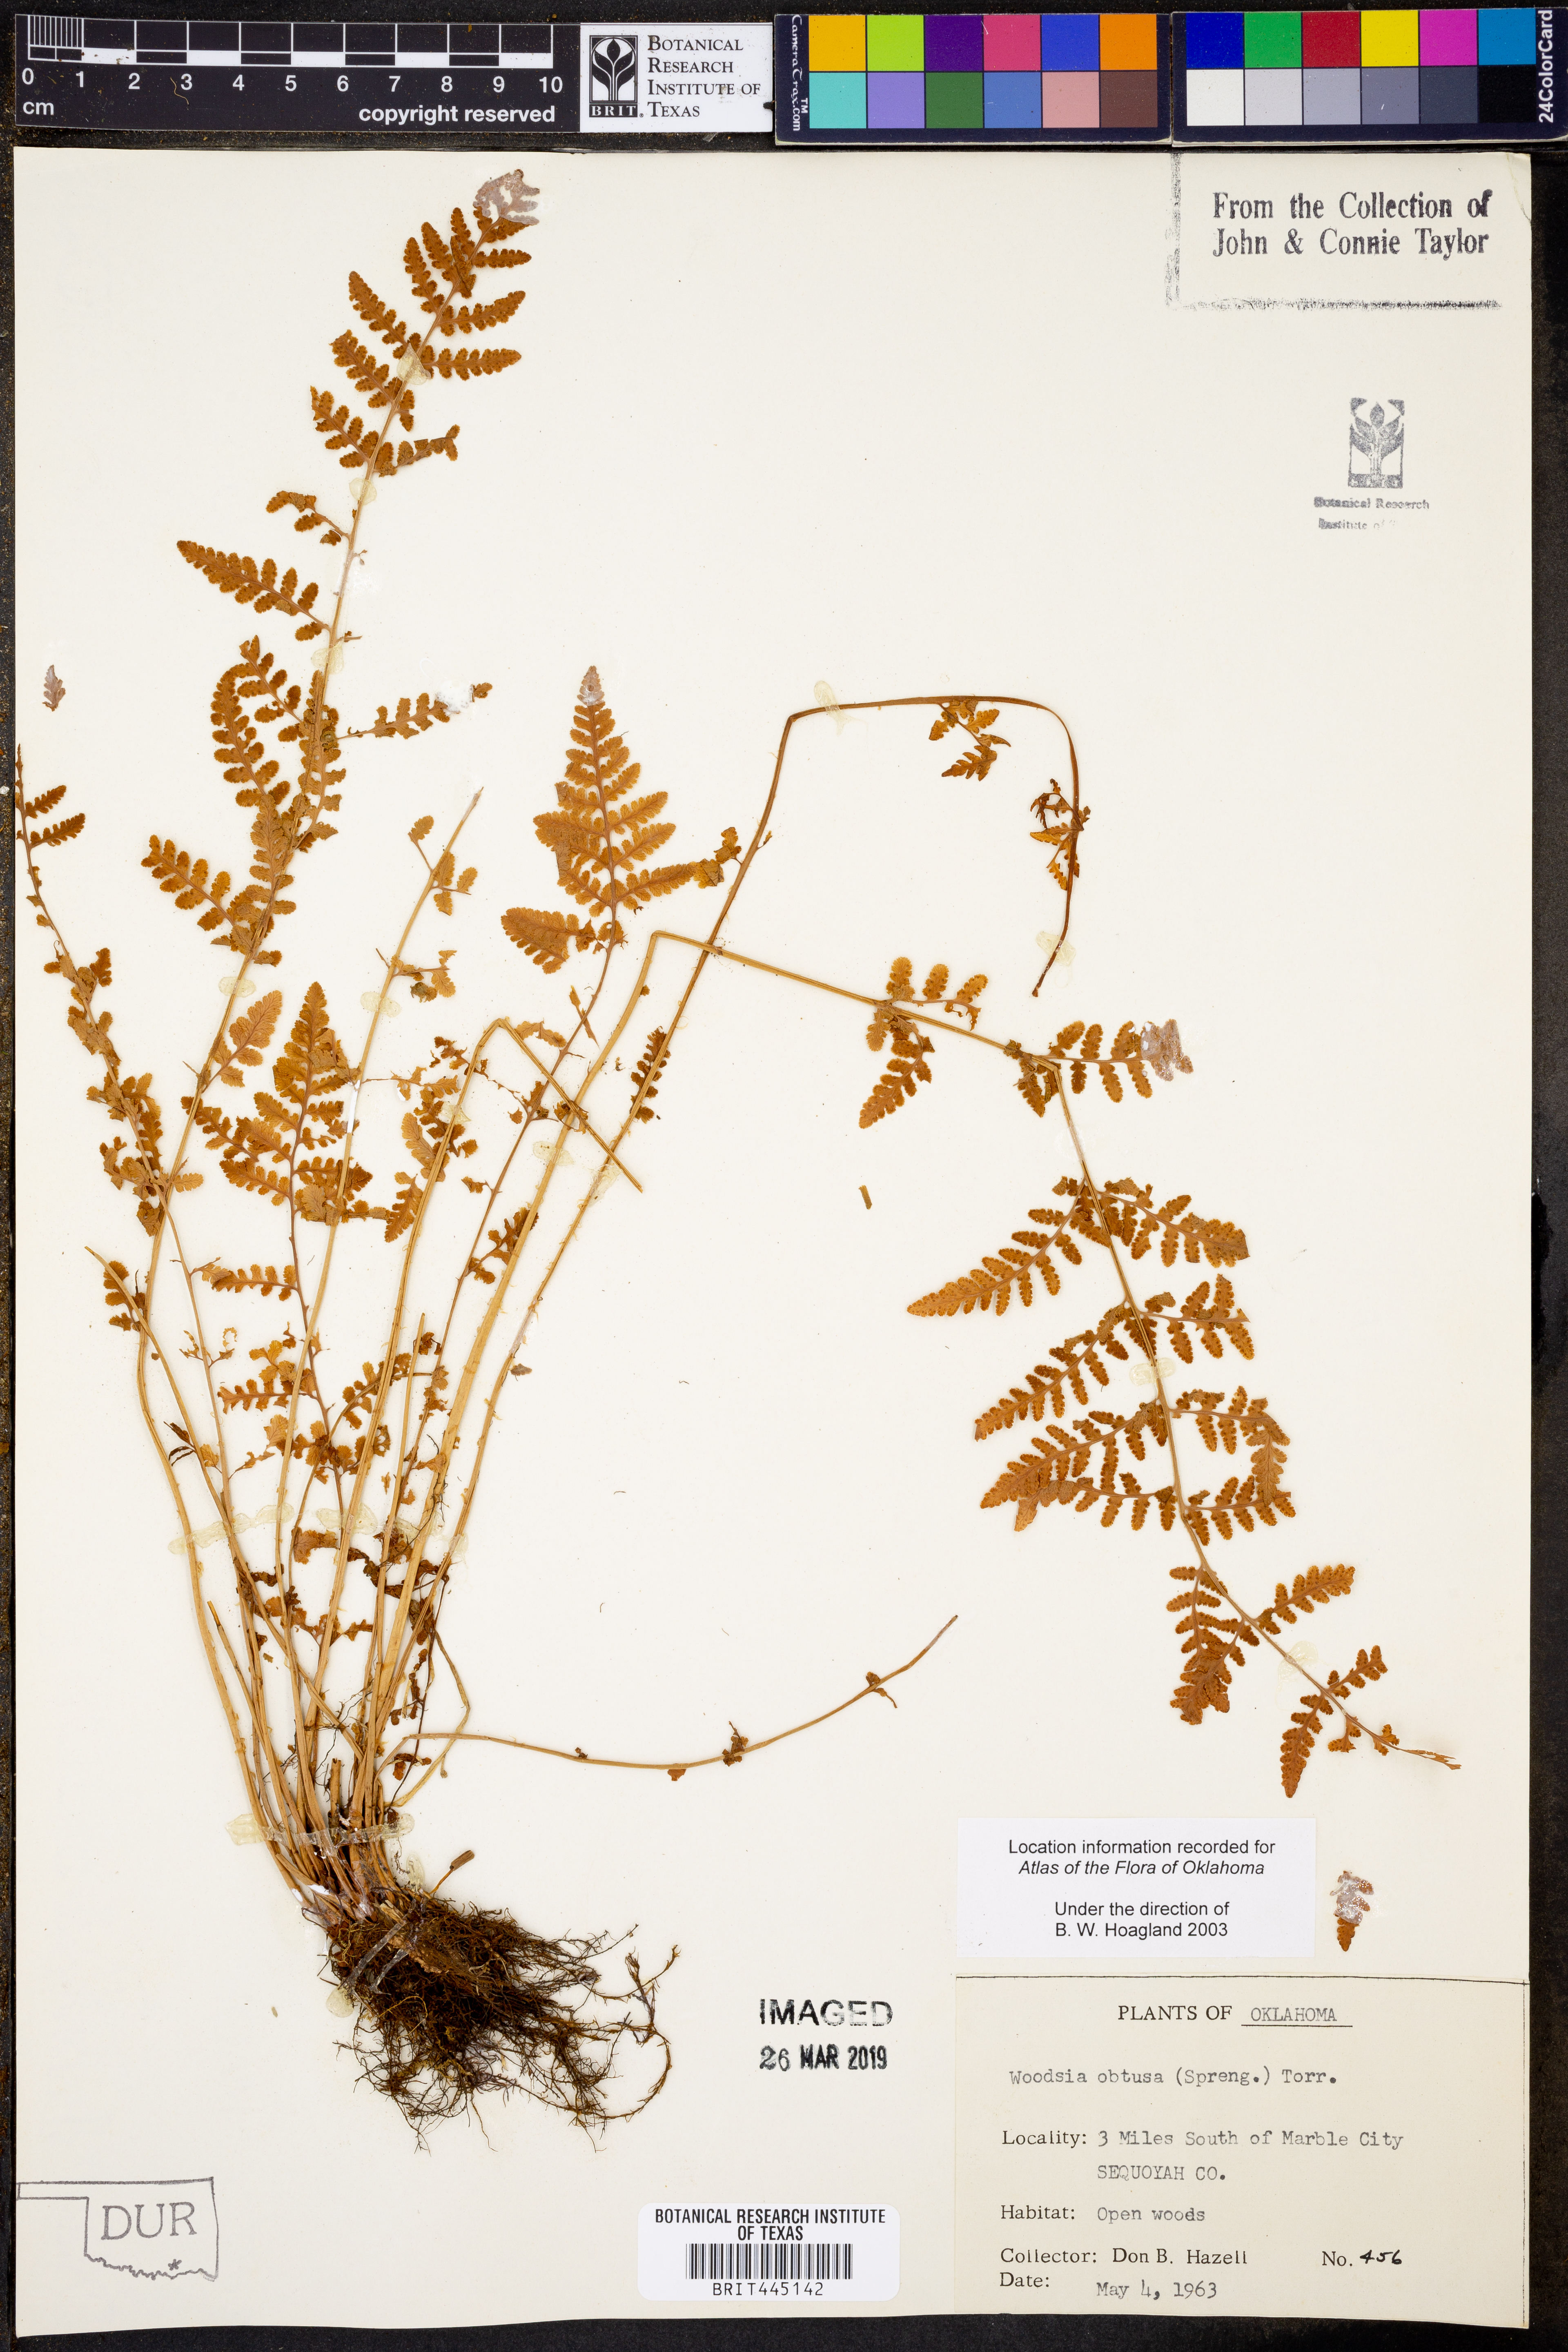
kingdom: Plantae
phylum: Tracheophyta
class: Polypodiopsida
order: Polypodiales
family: Woodsiaceae
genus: Physematium
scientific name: Physematium obtusum
